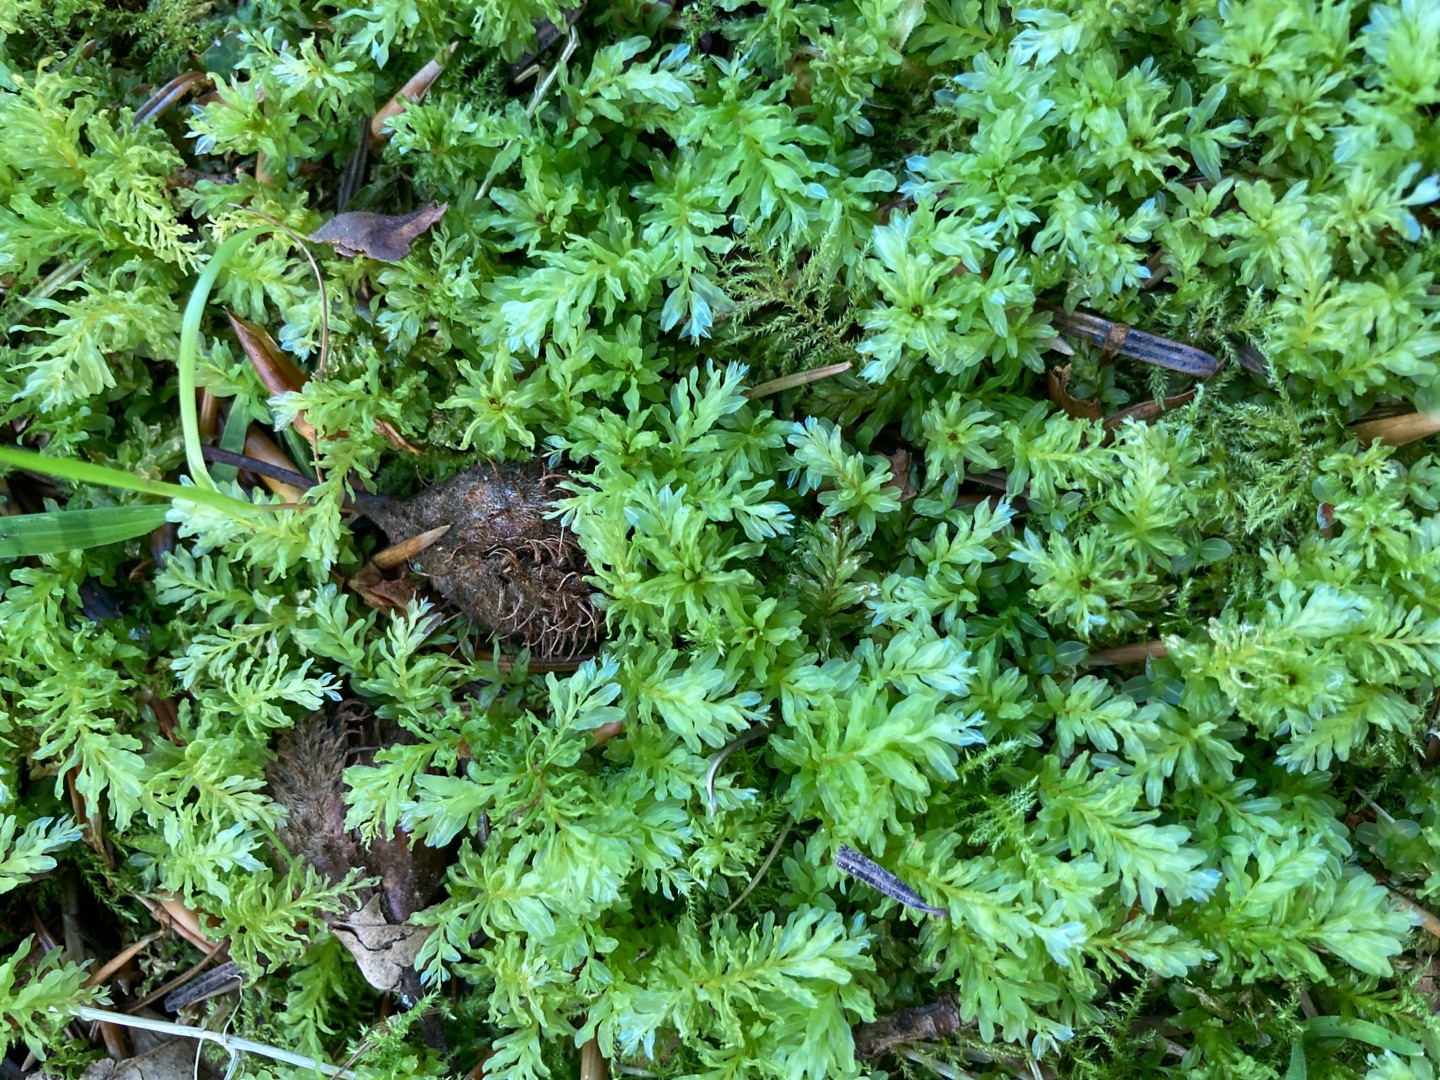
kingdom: Plantae
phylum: Bryophyta
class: Bryopsida
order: Bryales
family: Mniaceae
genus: Plagiomnium
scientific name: Plagiomnium undulatum
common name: Bølget krybstjerne
